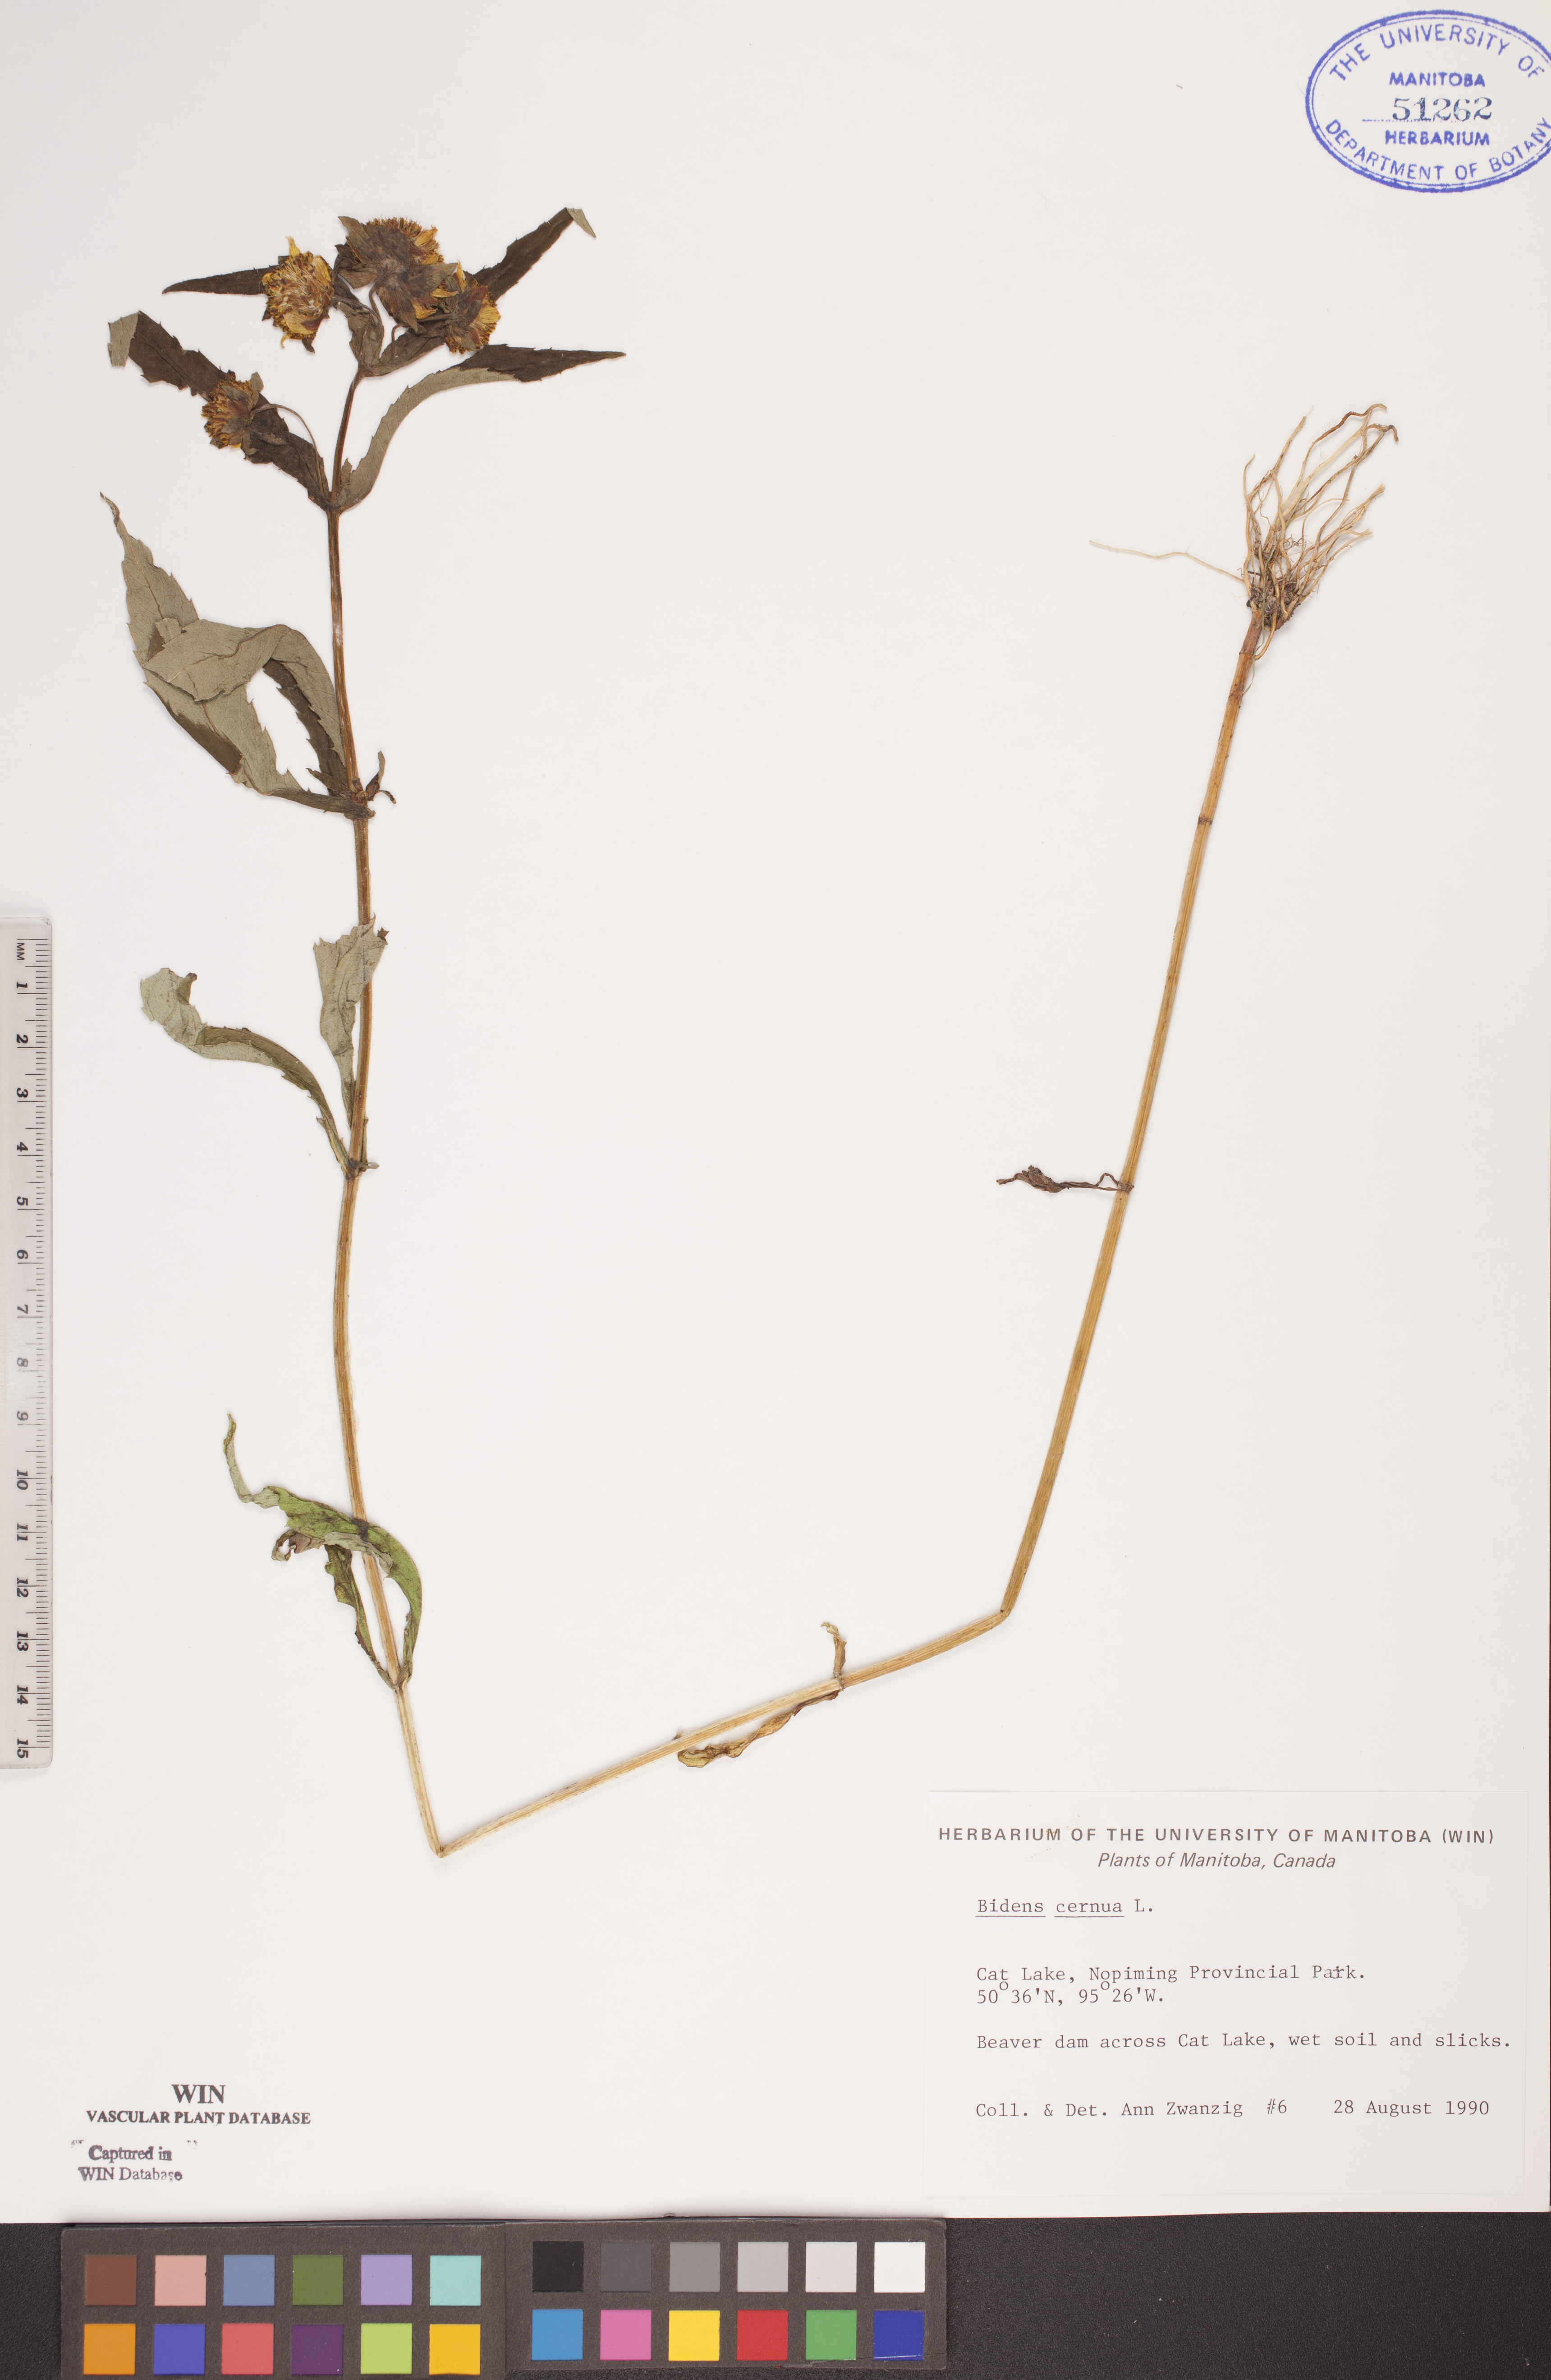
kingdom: Plantae
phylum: Tracheophyta
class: Magnoliopsida
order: Asterales
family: Asteraceae
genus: Bidens
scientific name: Bidens cernua
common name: Nodding bur-marigold
